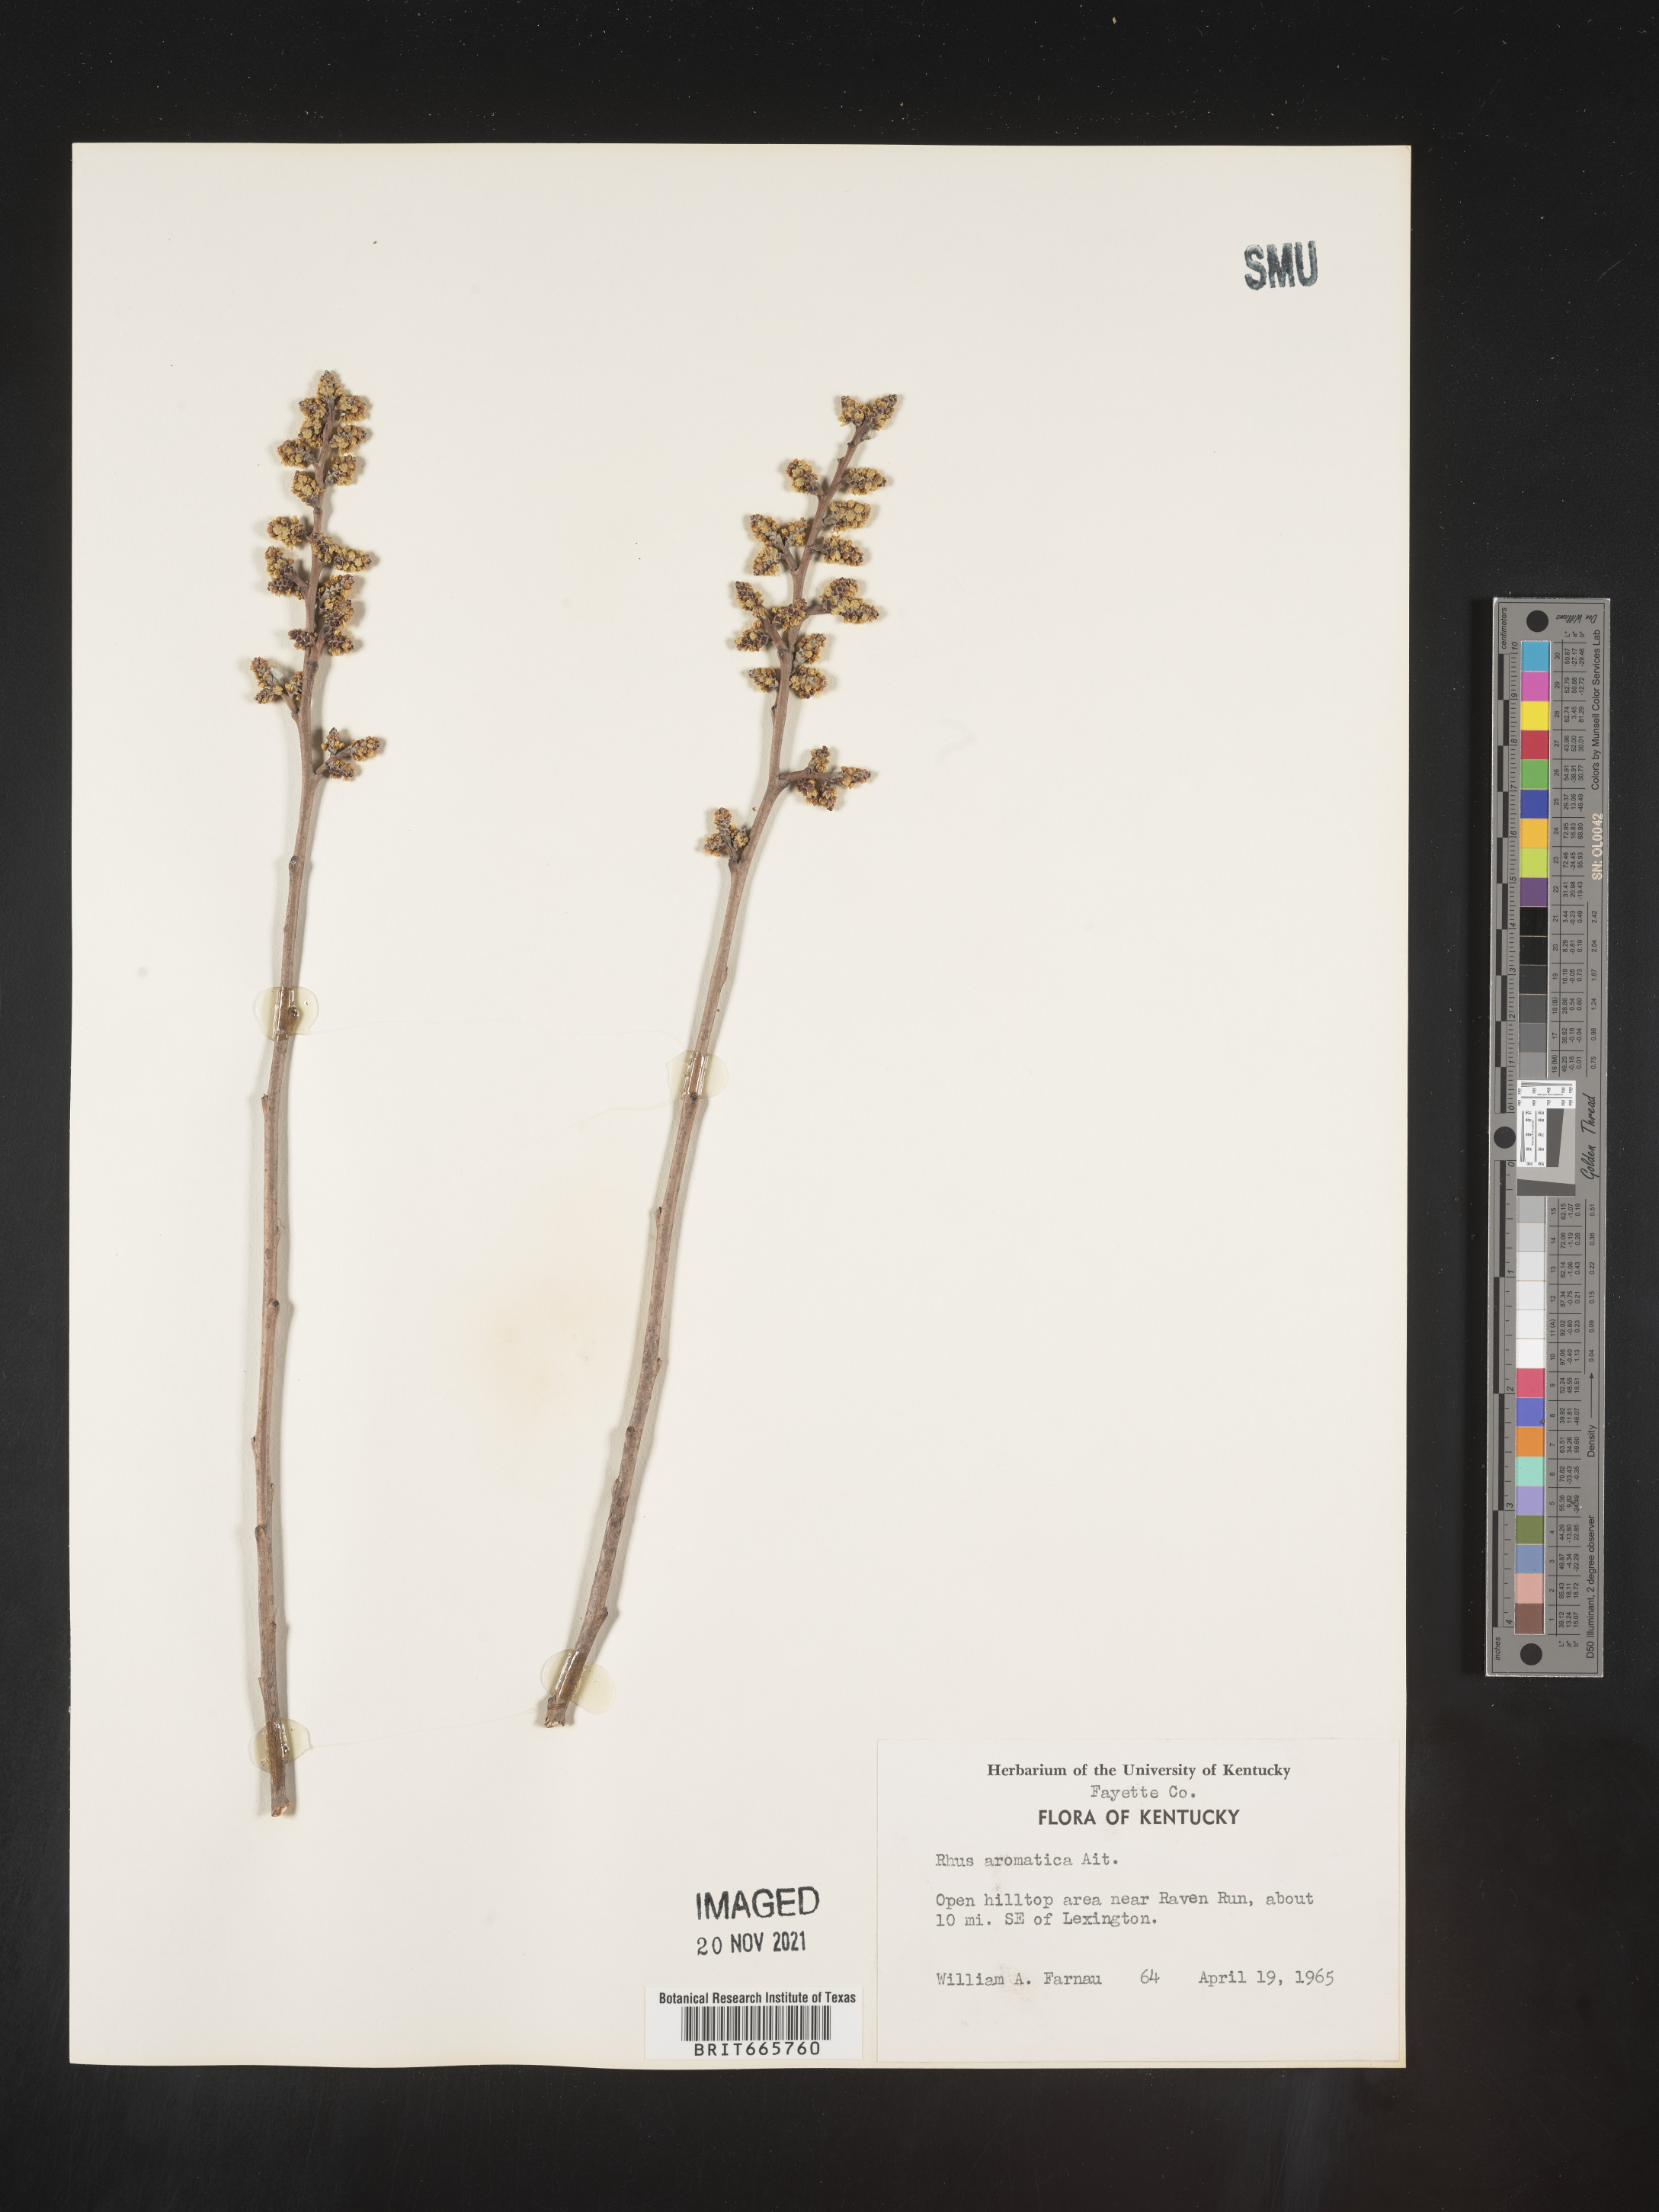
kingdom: Plantae
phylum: Tracheophyta
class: Magnoliopsida
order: Sapindales
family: Anacardiaceae
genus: Rhus
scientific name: Rhus aromatica
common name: Aromatic sumac
